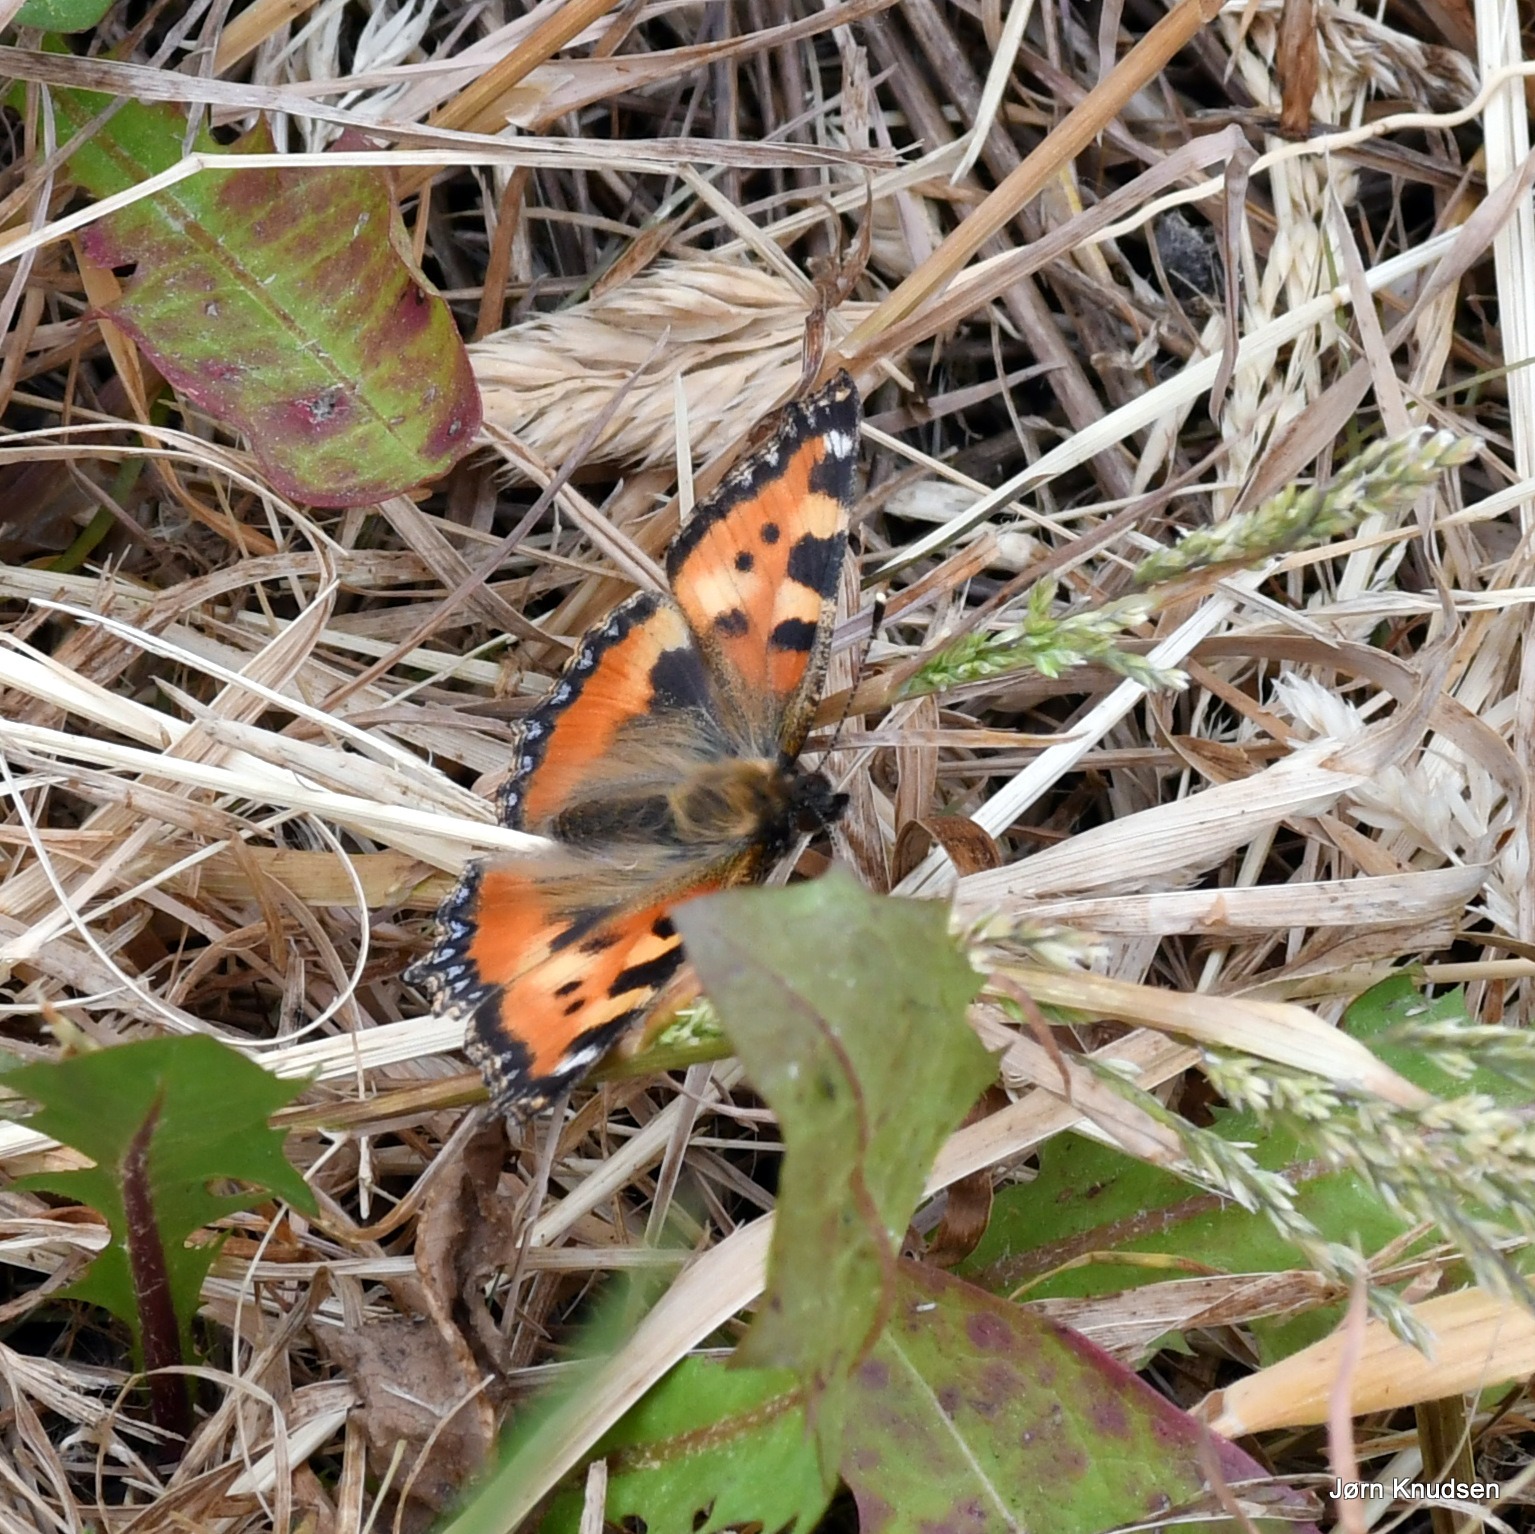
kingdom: Animalia
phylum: Arthropoda
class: Insecta
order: Lepidoptera
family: Nymphalidae
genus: Aglais
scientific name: Aglais urticae
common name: Nældens takvinge
